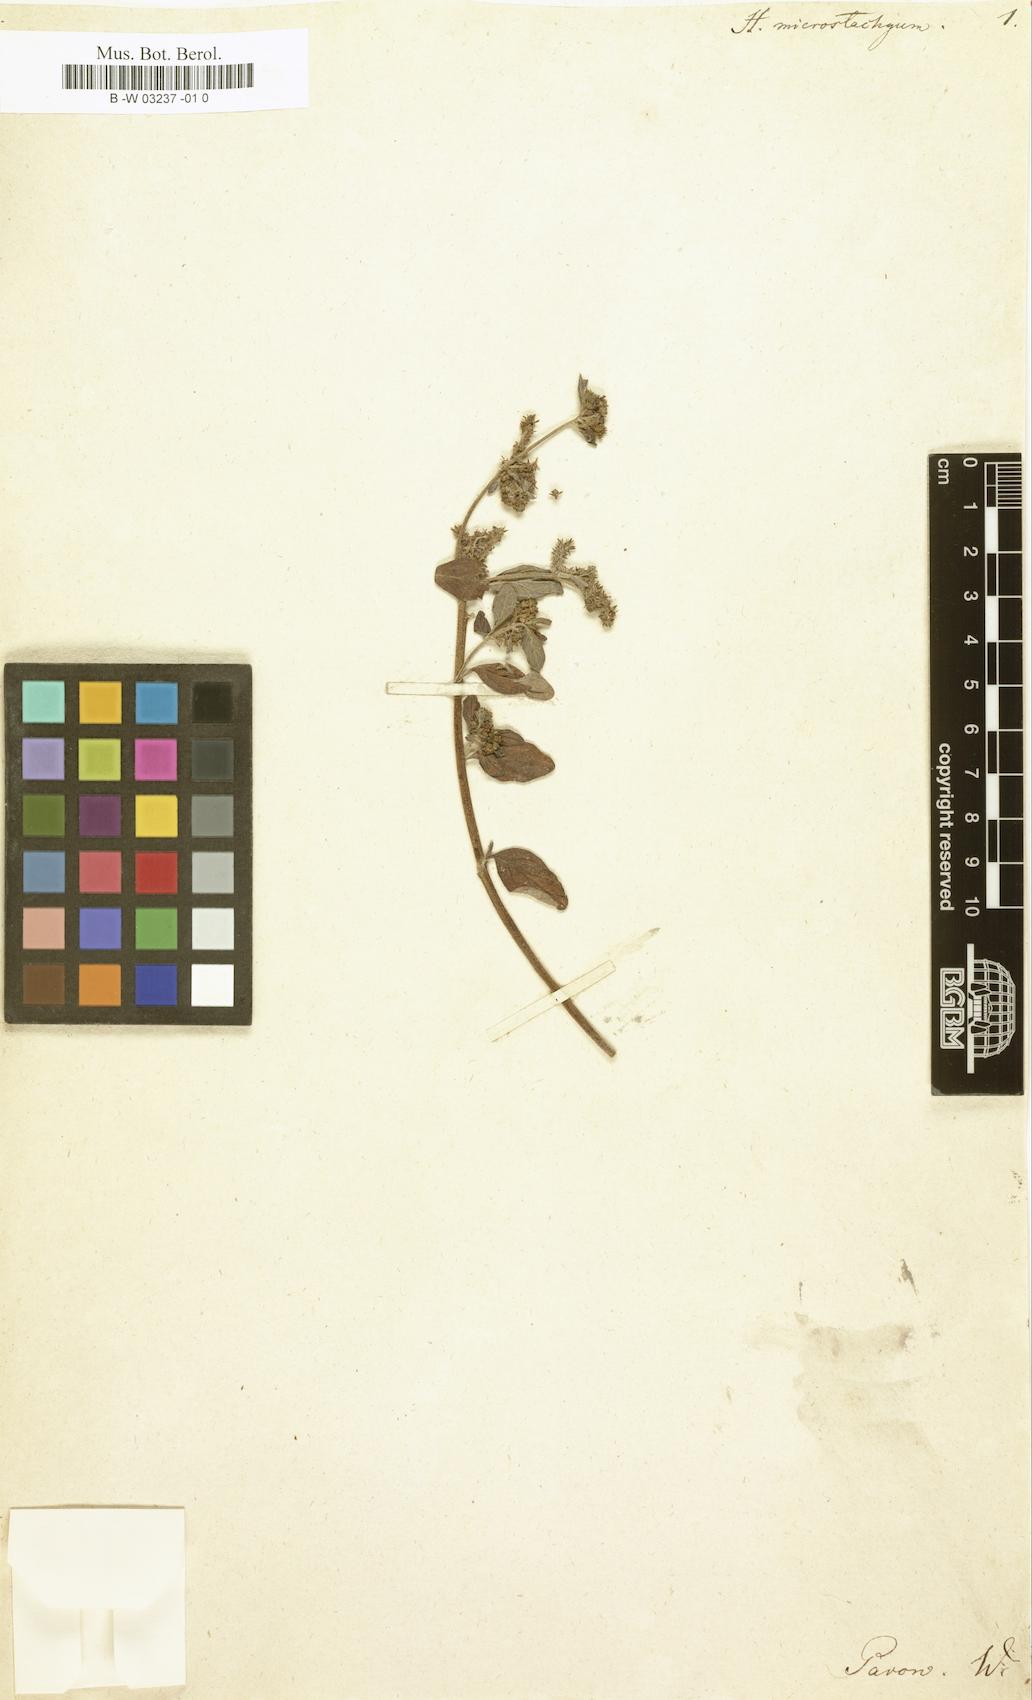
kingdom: Plantae
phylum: Tracheophyta
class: Magnoliopsida
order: Boraginales
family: Heliotropiaceae
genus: Heliotropium
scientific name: Heliotropium microstachyum
